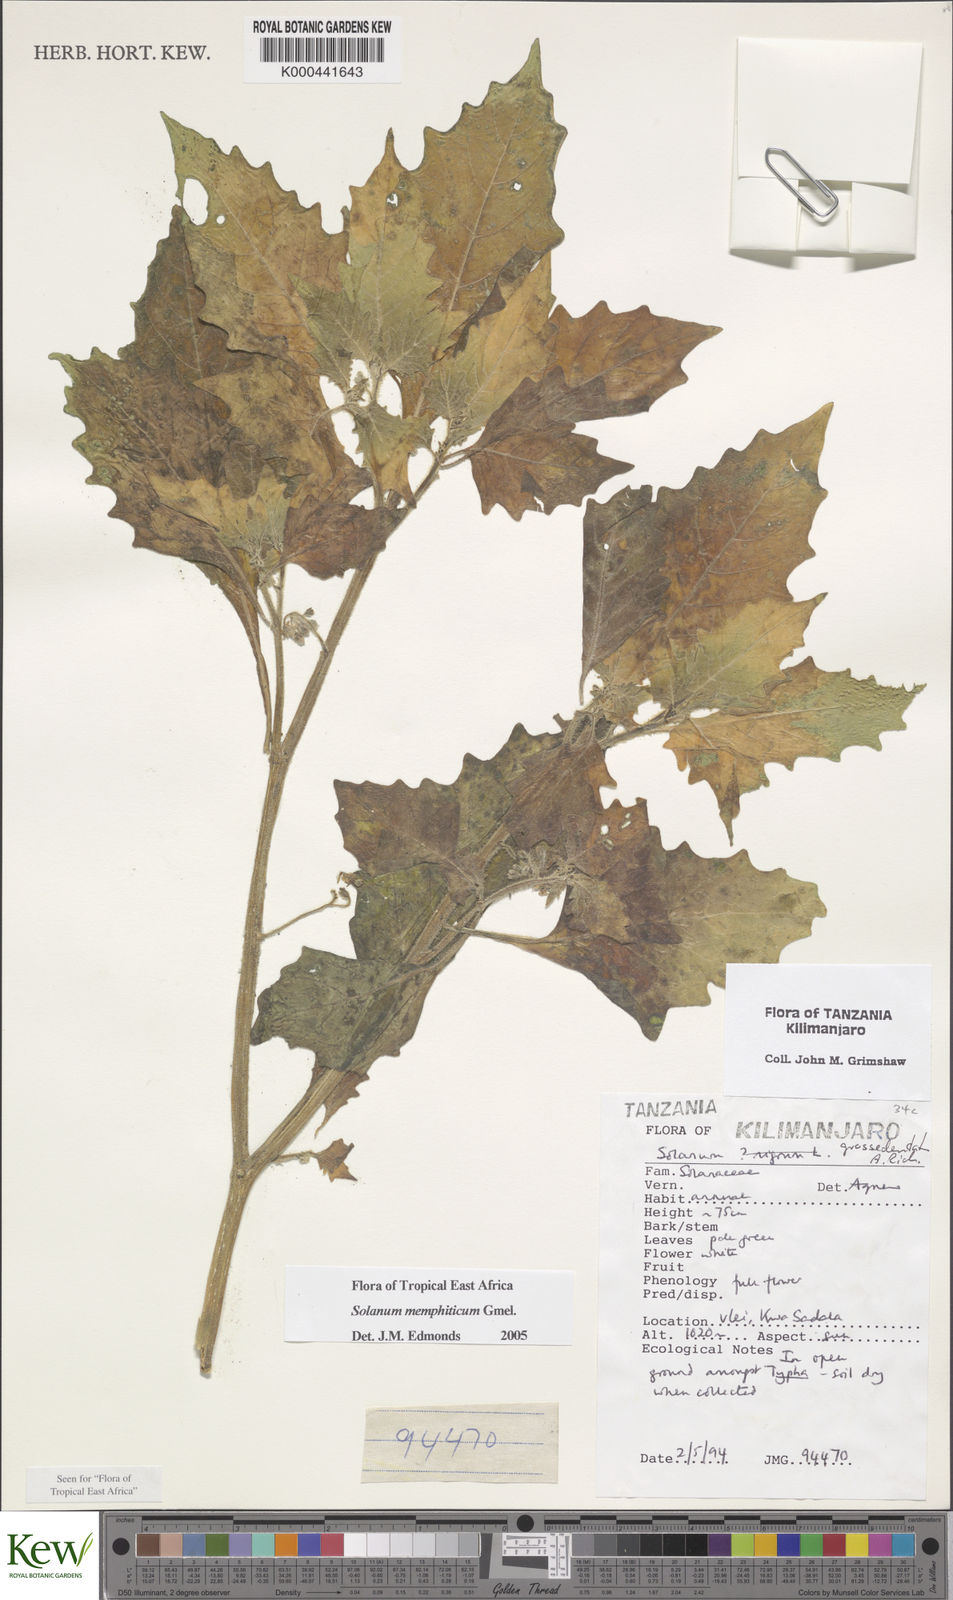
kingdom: Plantae
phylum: Tracheophyta
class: Magnoliopsida
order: Solanales
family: Solanaceae
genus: Solanum
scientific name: Solanum memphiticum
